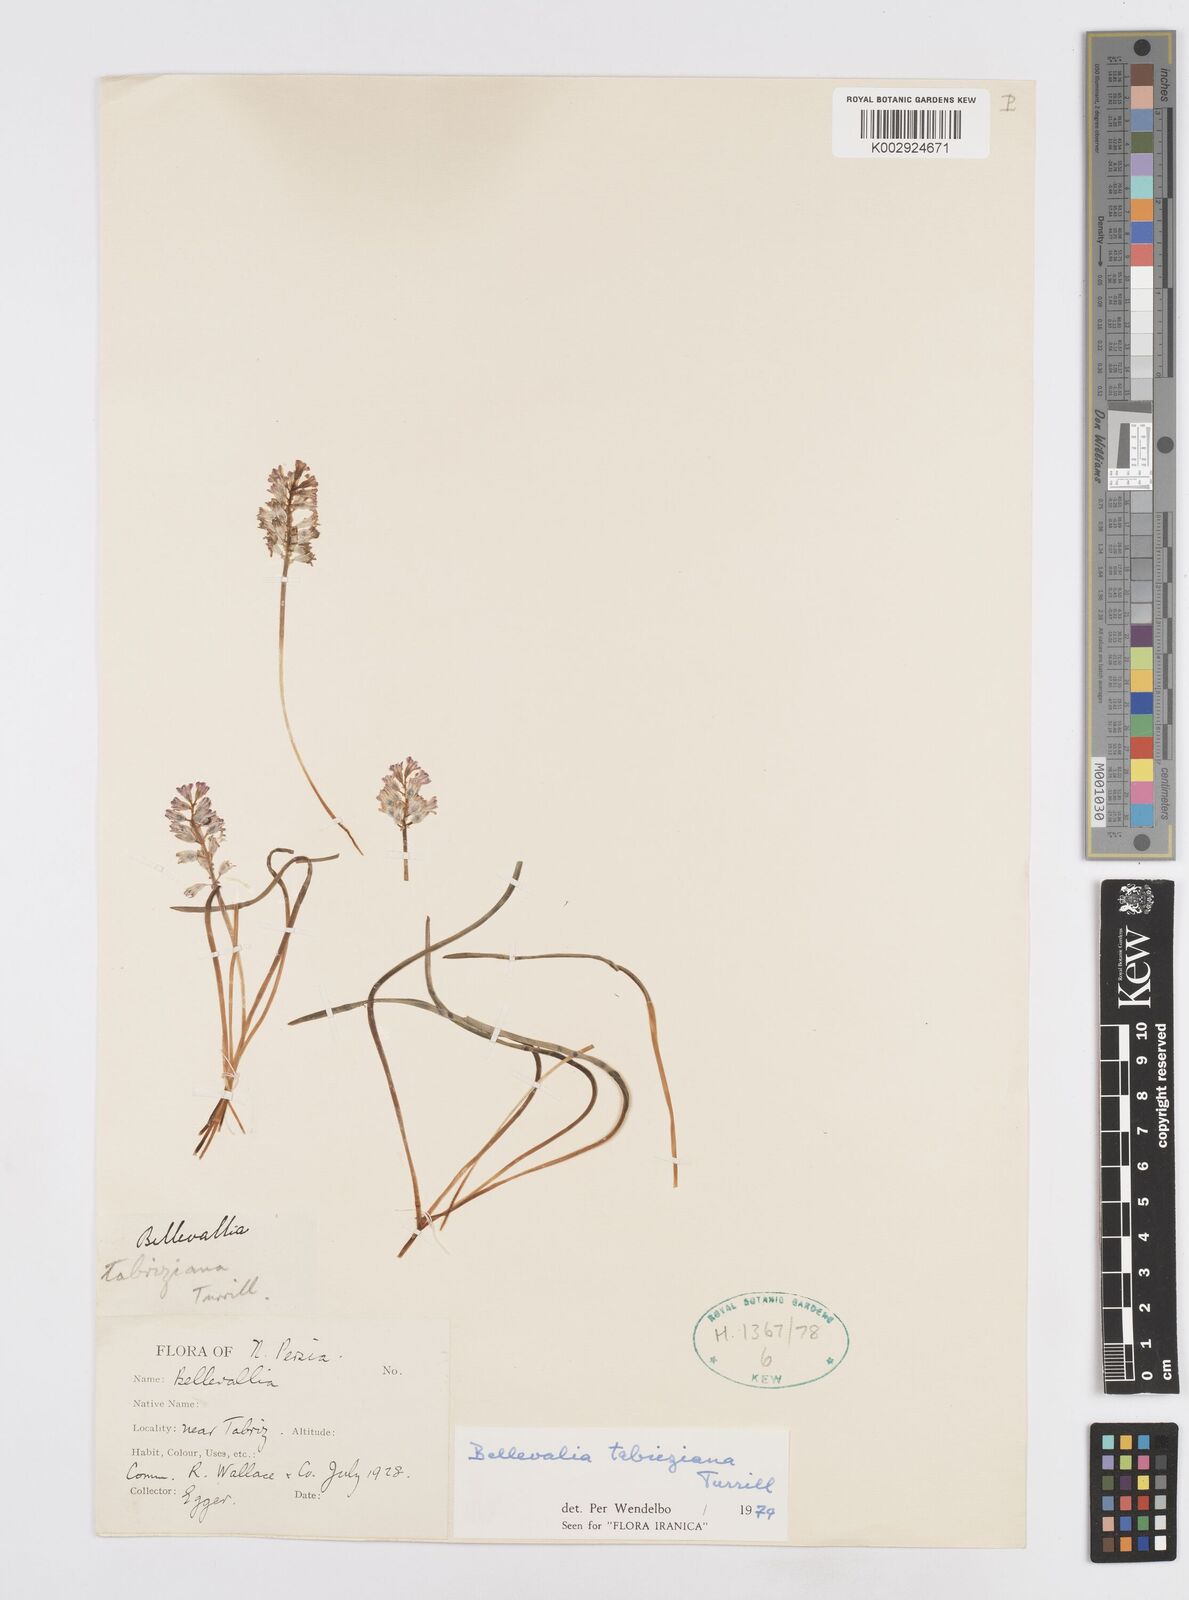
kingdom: Plantae
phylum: Tracheophyta
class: Liliopsida
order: Asparagales
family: Asparagaceae
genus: Bellevalia
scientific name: Bellevalia tabriziana
